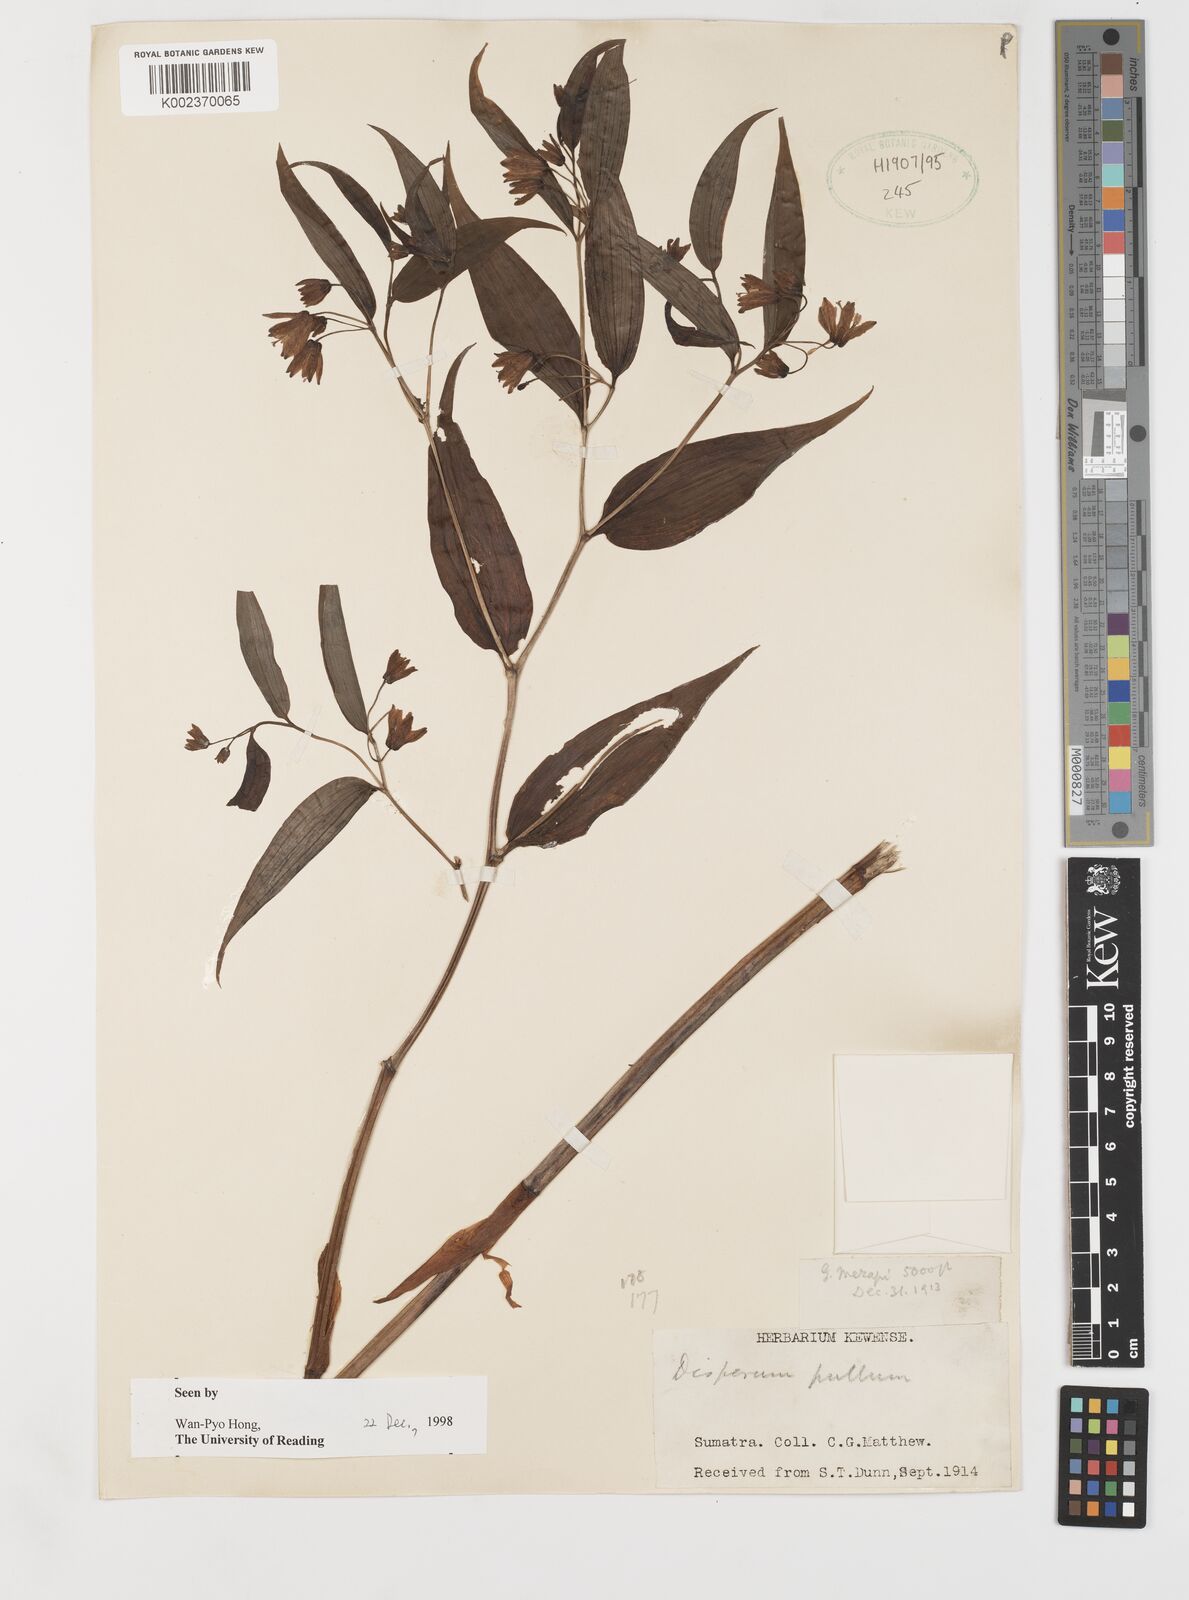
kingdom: Plantae
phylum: Tracheophyta
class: Liliopsida
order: Liliales
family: Colchicaceae
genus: Disporum
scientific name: Disporum cantoniense
